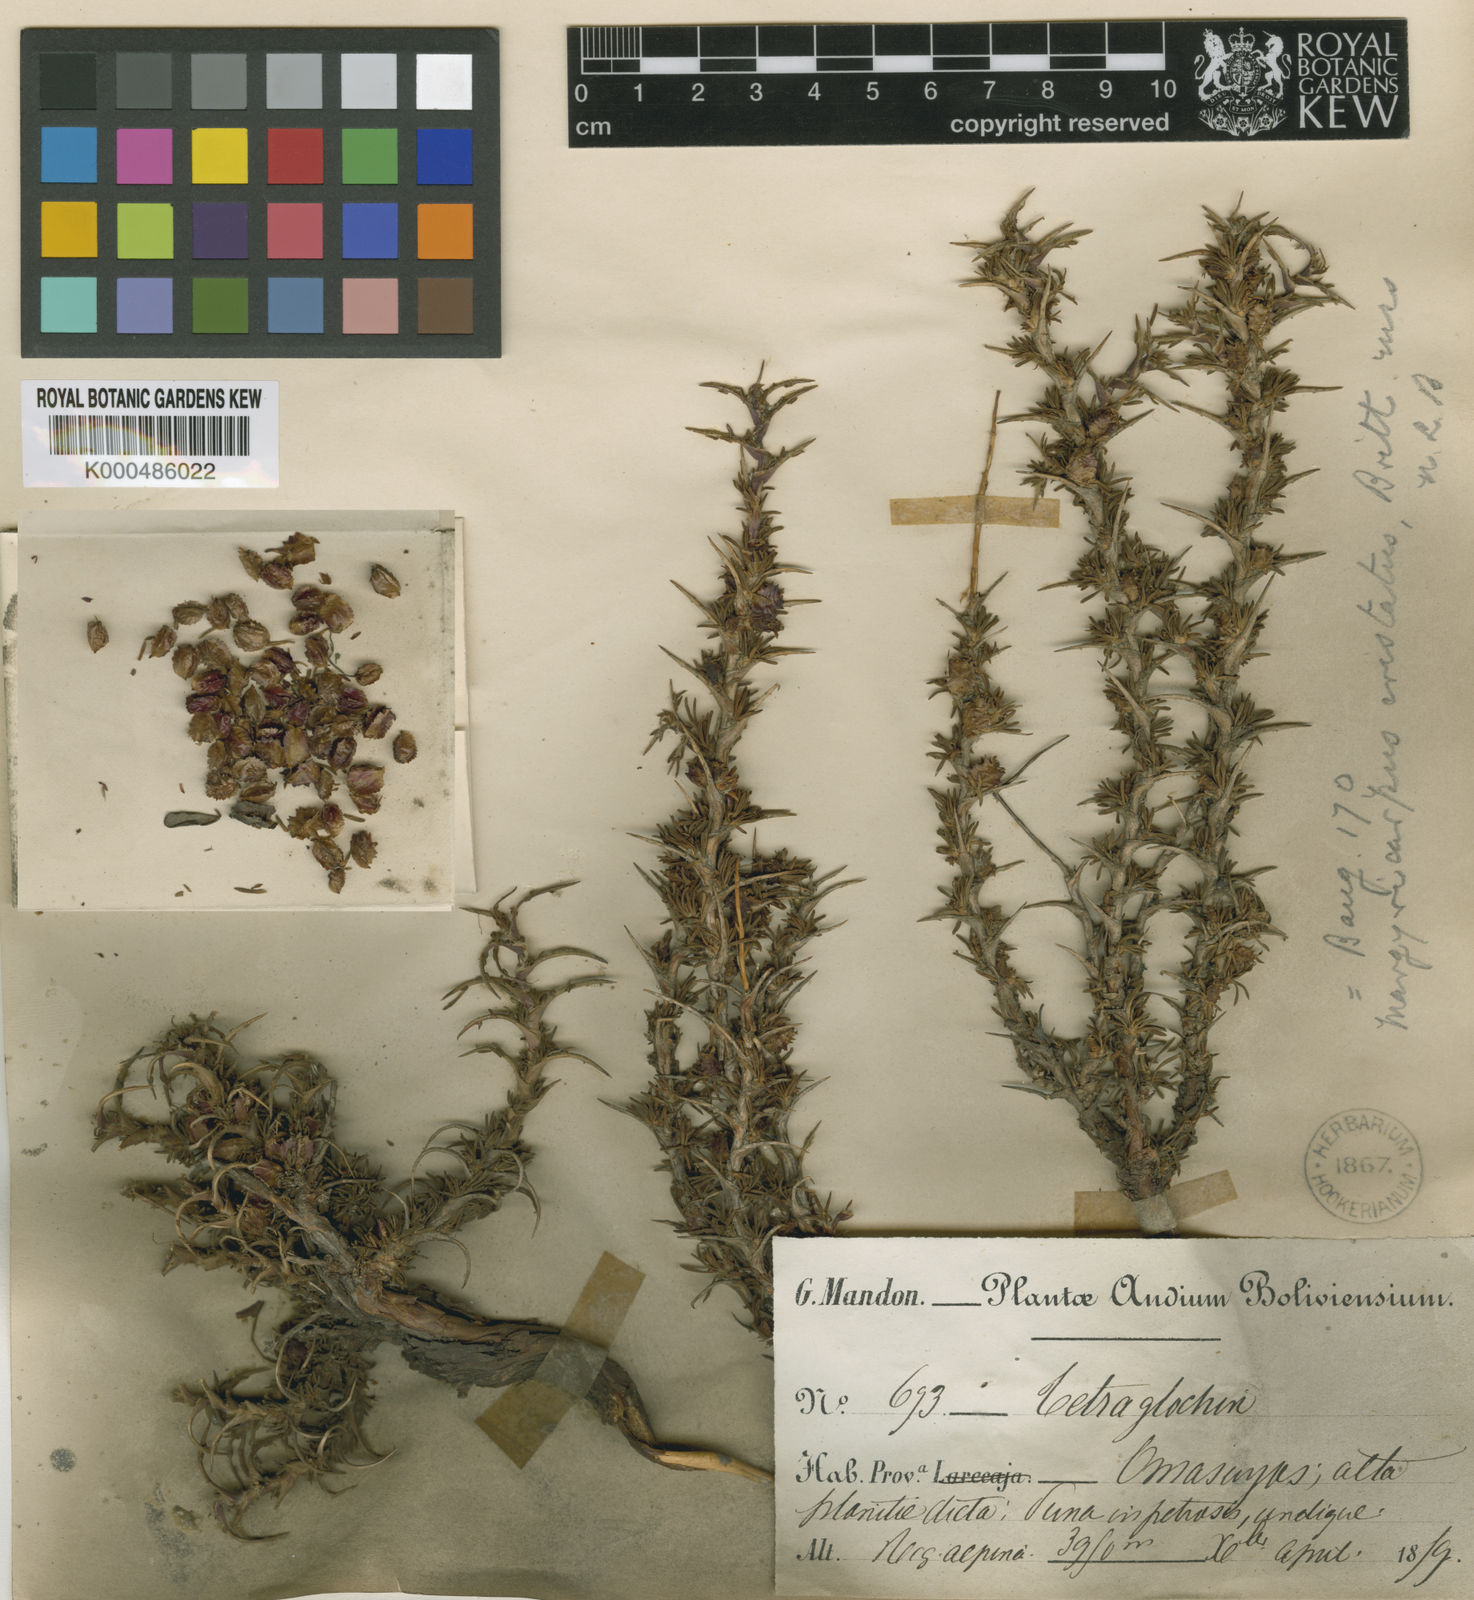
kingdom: Plantae
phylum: Tracheophyta
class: Magnoliopsida
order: Rosales
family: Rosaceae
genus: Margyricarpus
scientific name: Margyricarpus cristatus
